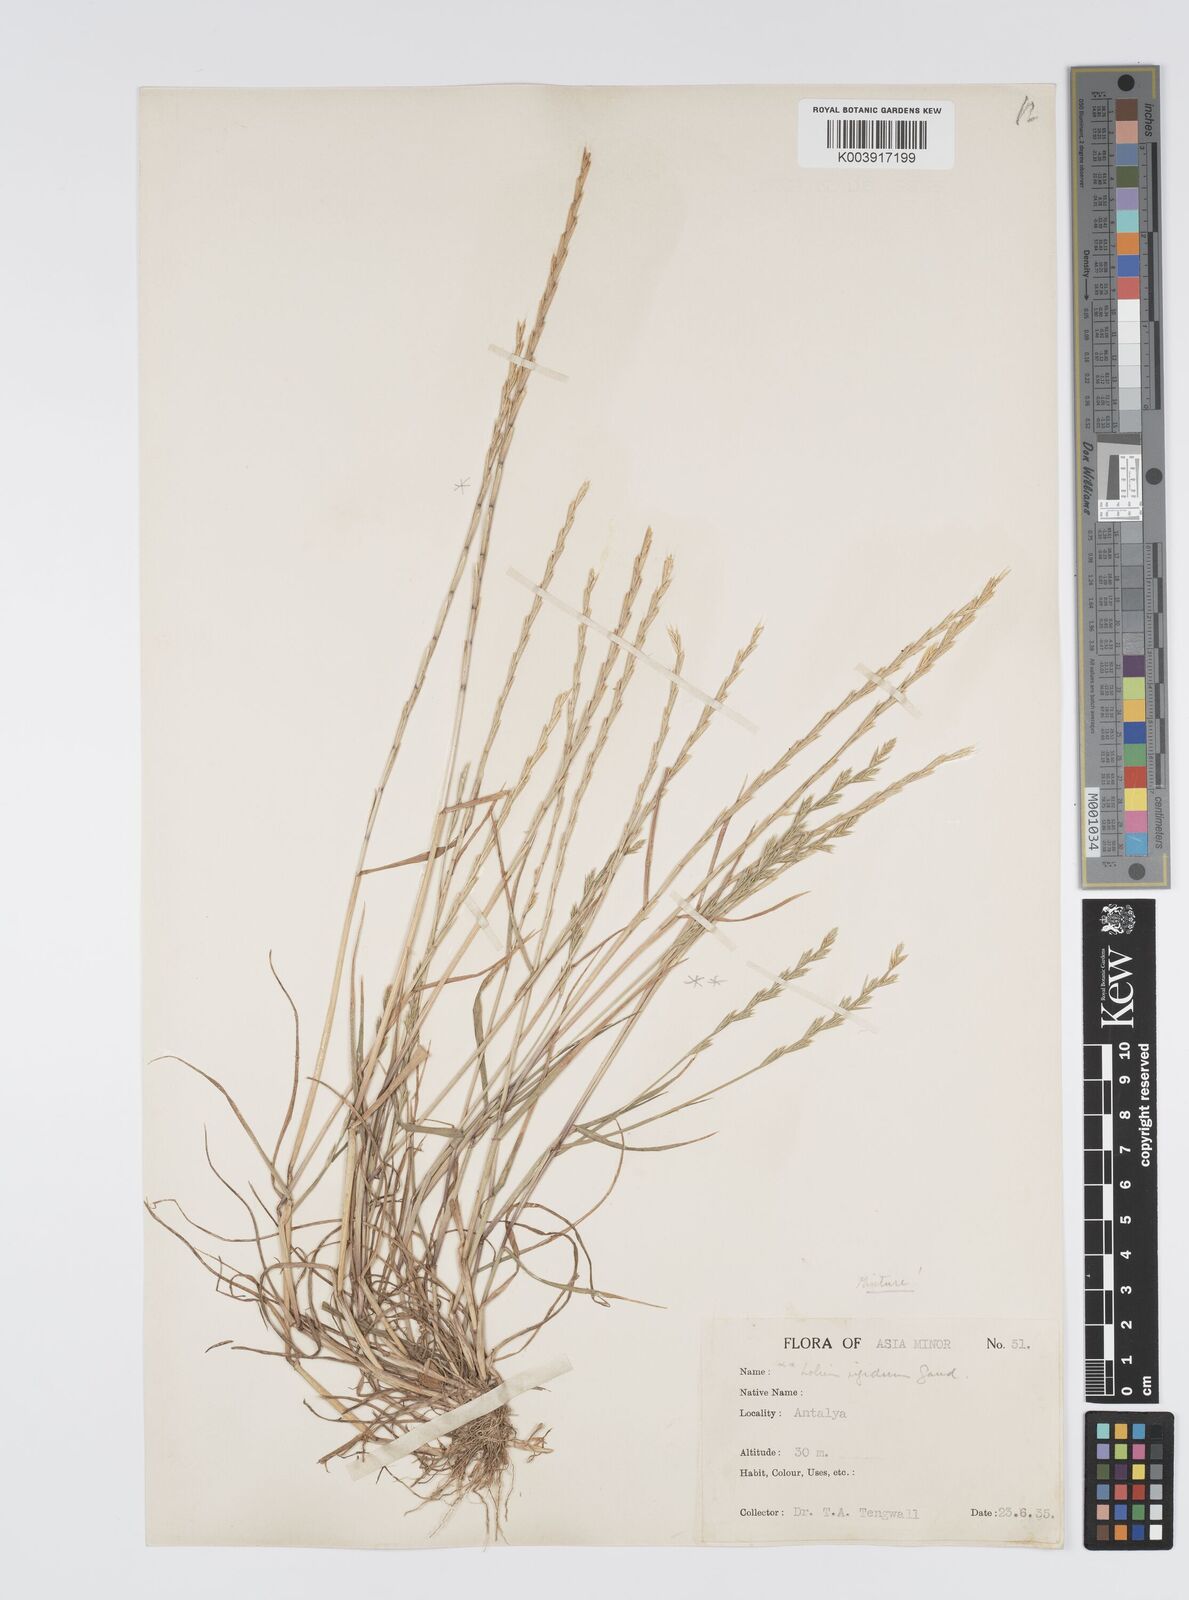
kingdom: Plantae
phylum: Tracheophyta
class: Liliopsida
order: Poales
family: Poaceae
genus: Lolium
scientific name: Lolium rigidum
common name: Wimmera ryegrass
